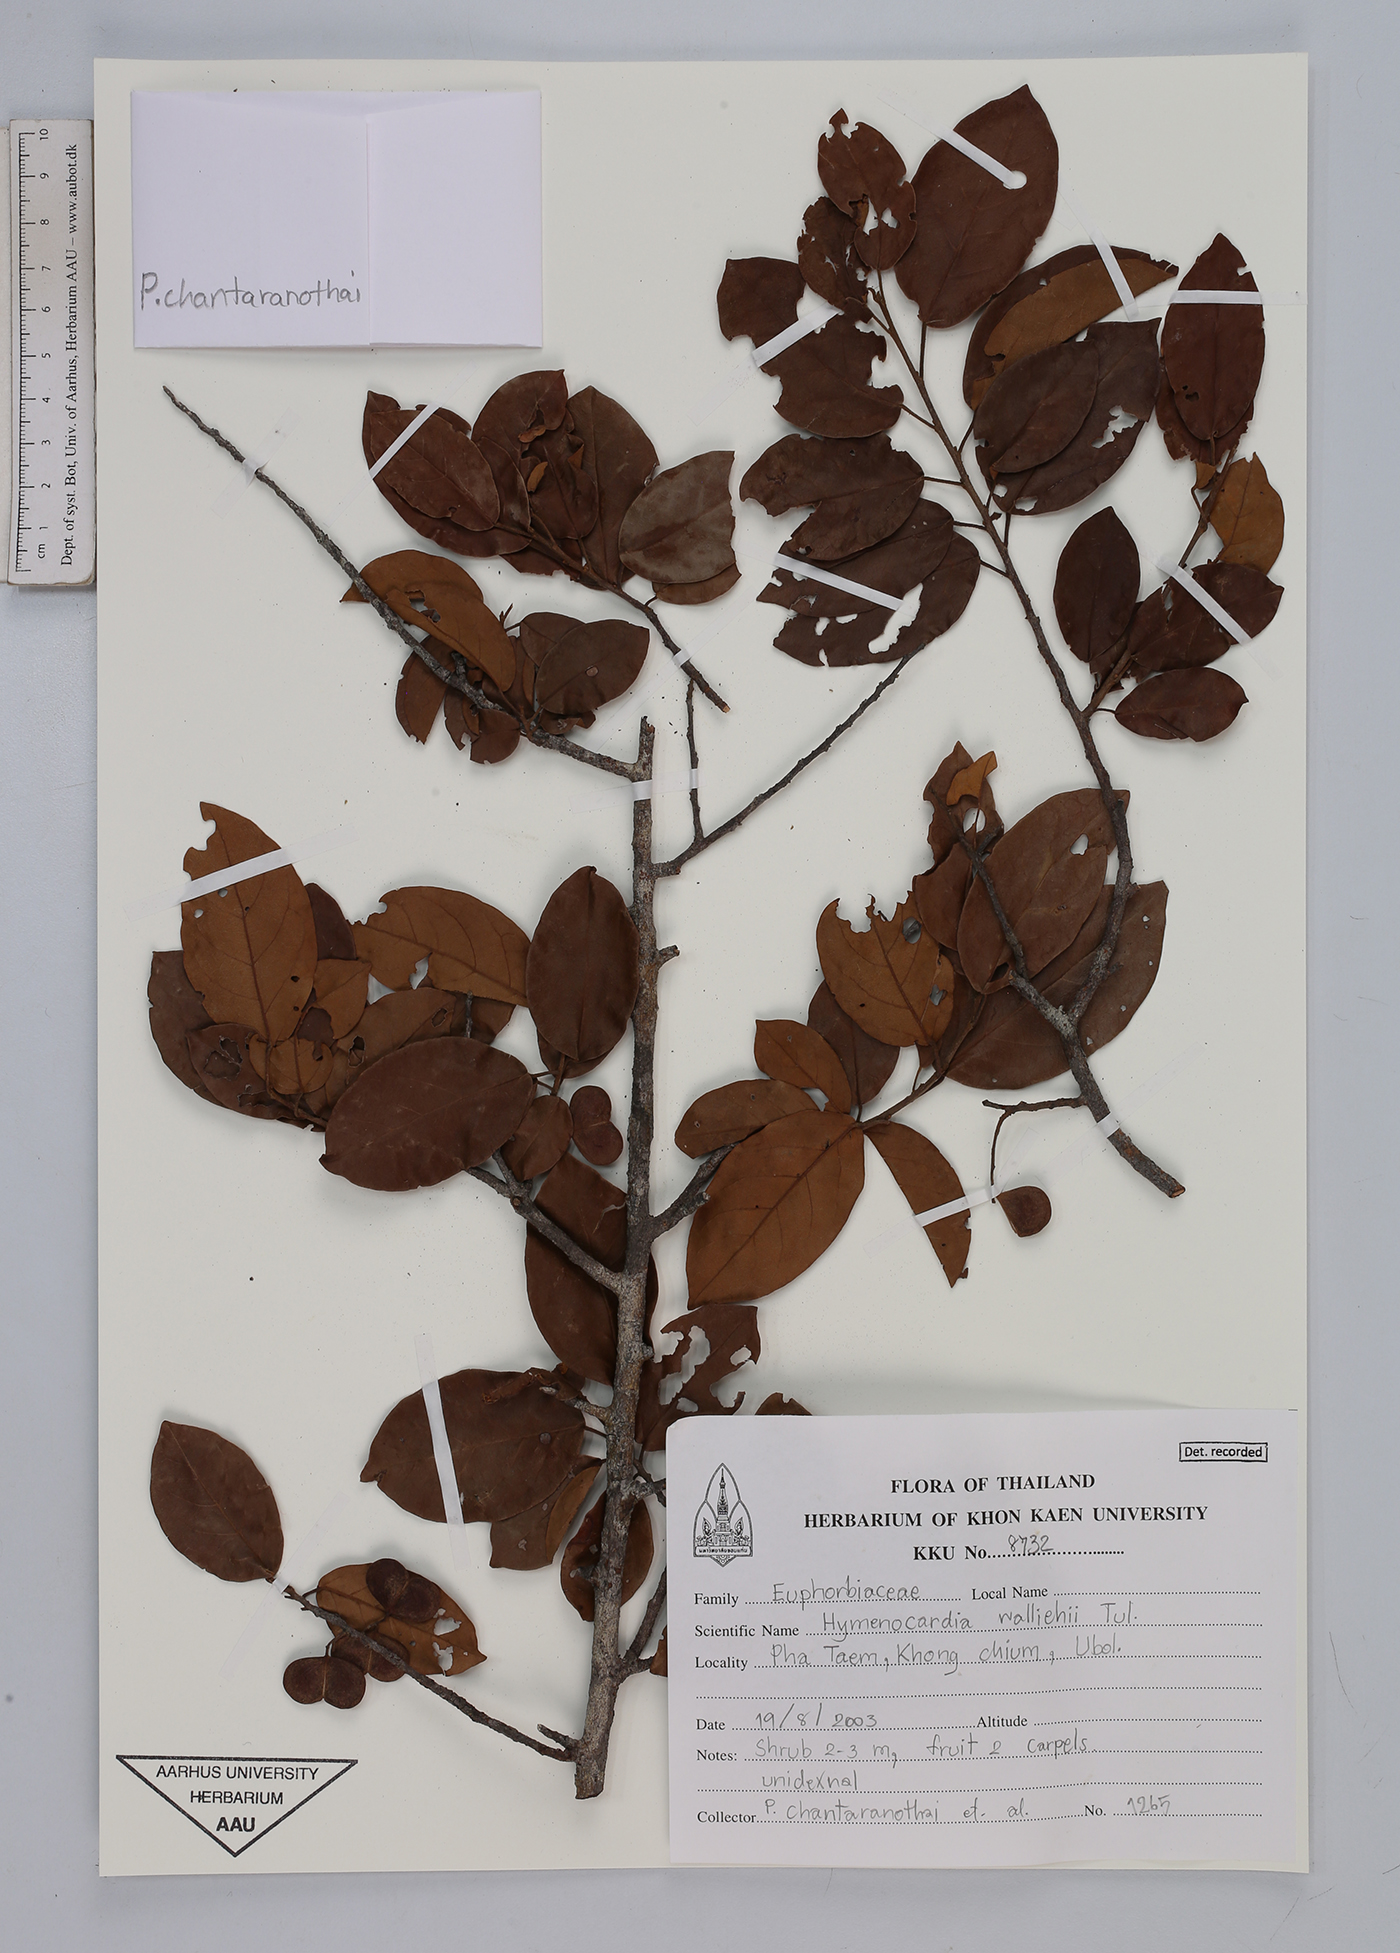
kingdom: Plantae
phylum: Tracheophyta
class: Magnoliopsida
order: Malpighiales
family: Phyllanthaceae
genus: Hymenocardia
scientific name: Hymenocardia punctata
